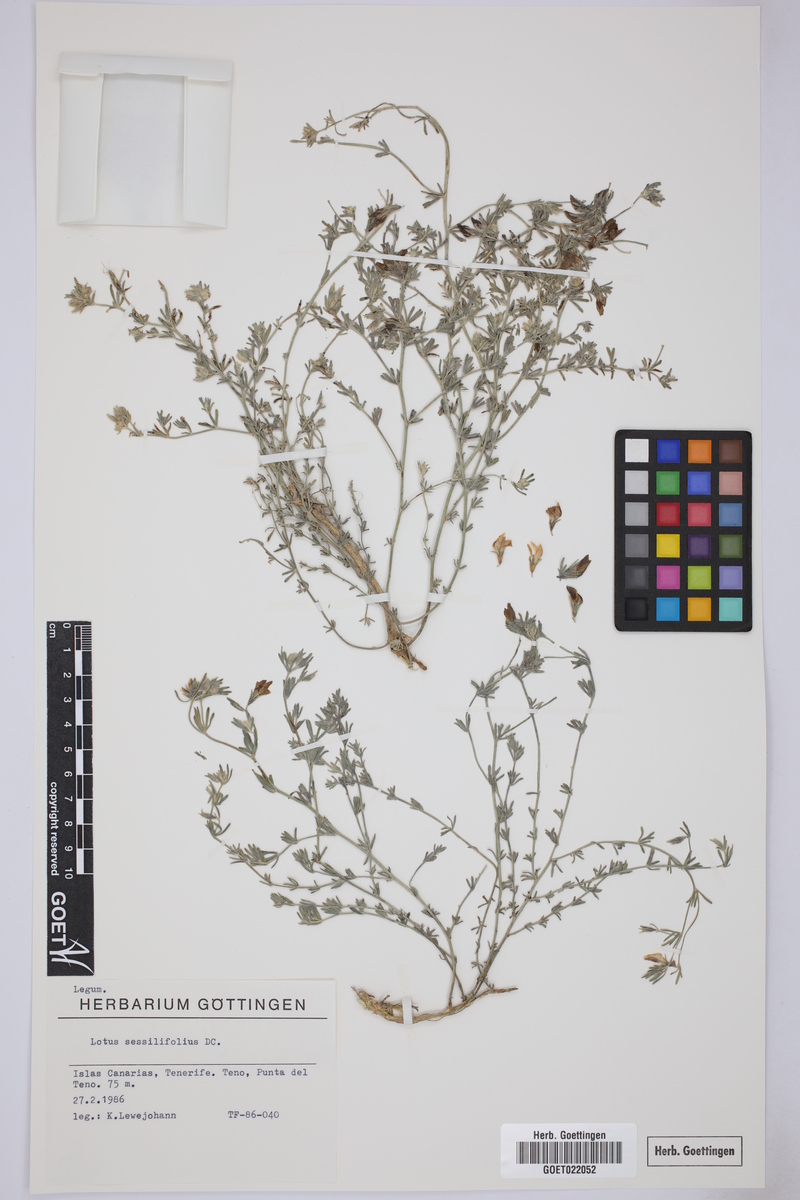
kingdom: Plantae
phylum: Tracheophyta
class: Magnoliopsida
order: Fabales
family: Fabaceae
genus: Lotus
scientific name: Lotus sessilifolius
